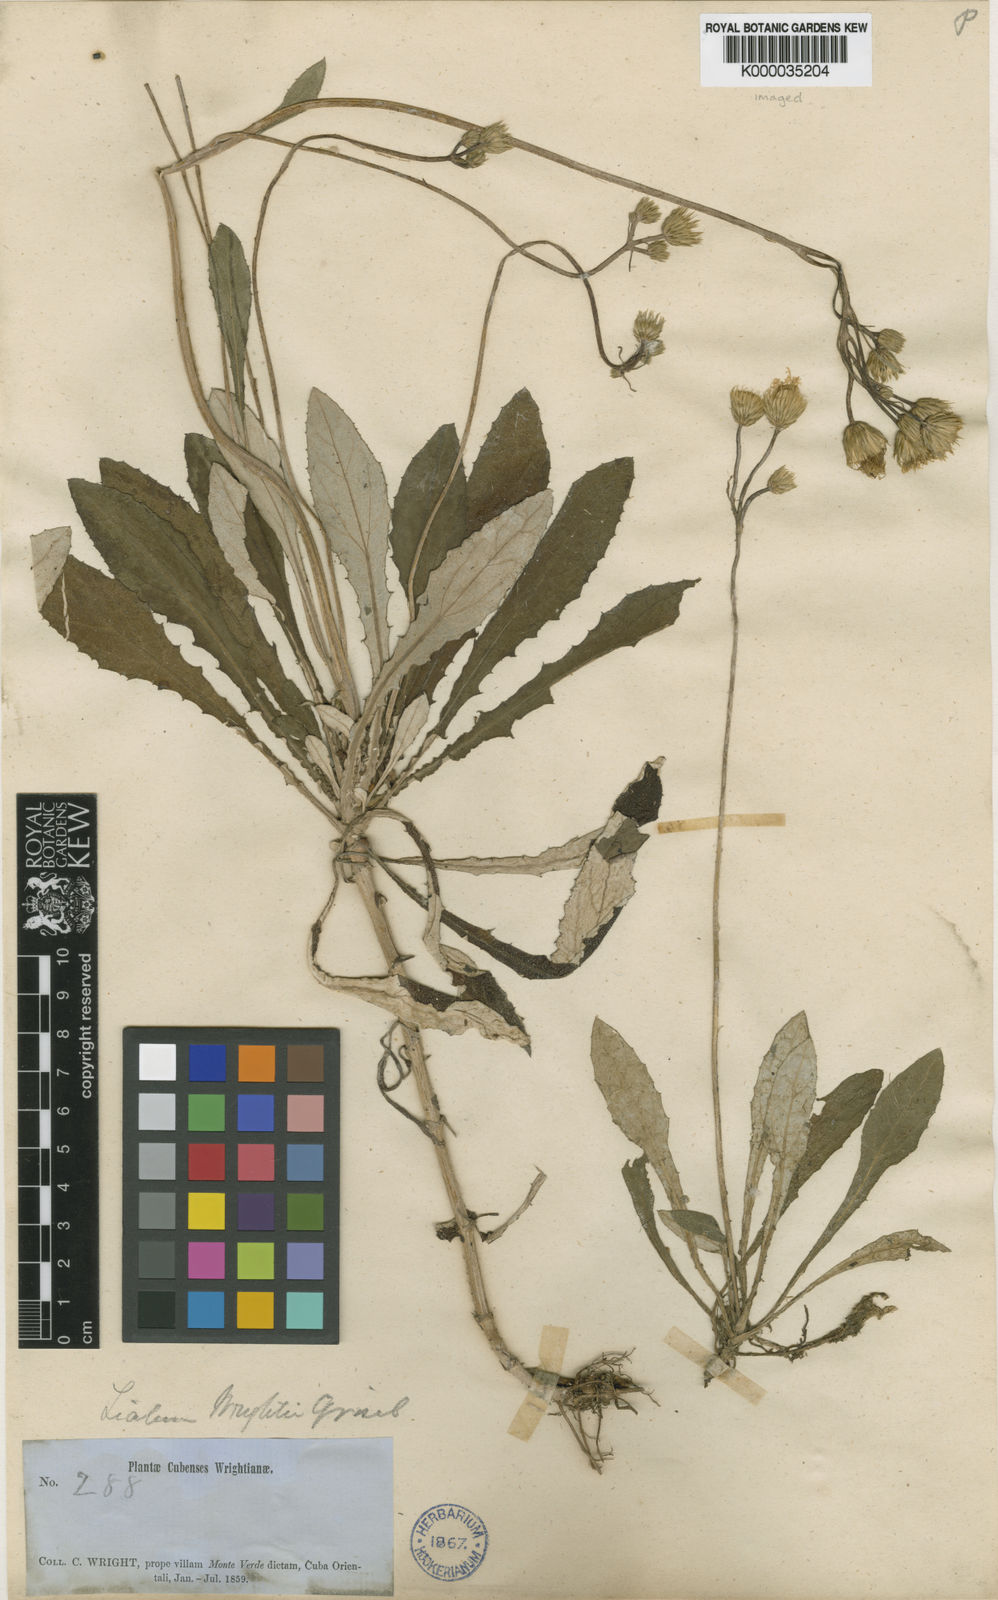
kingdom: Plantae
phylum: Tracheophyta
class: Magnoliopsida
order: Asterales
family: Asteraceae
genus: Liabum
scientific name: Liabum umbellatum
